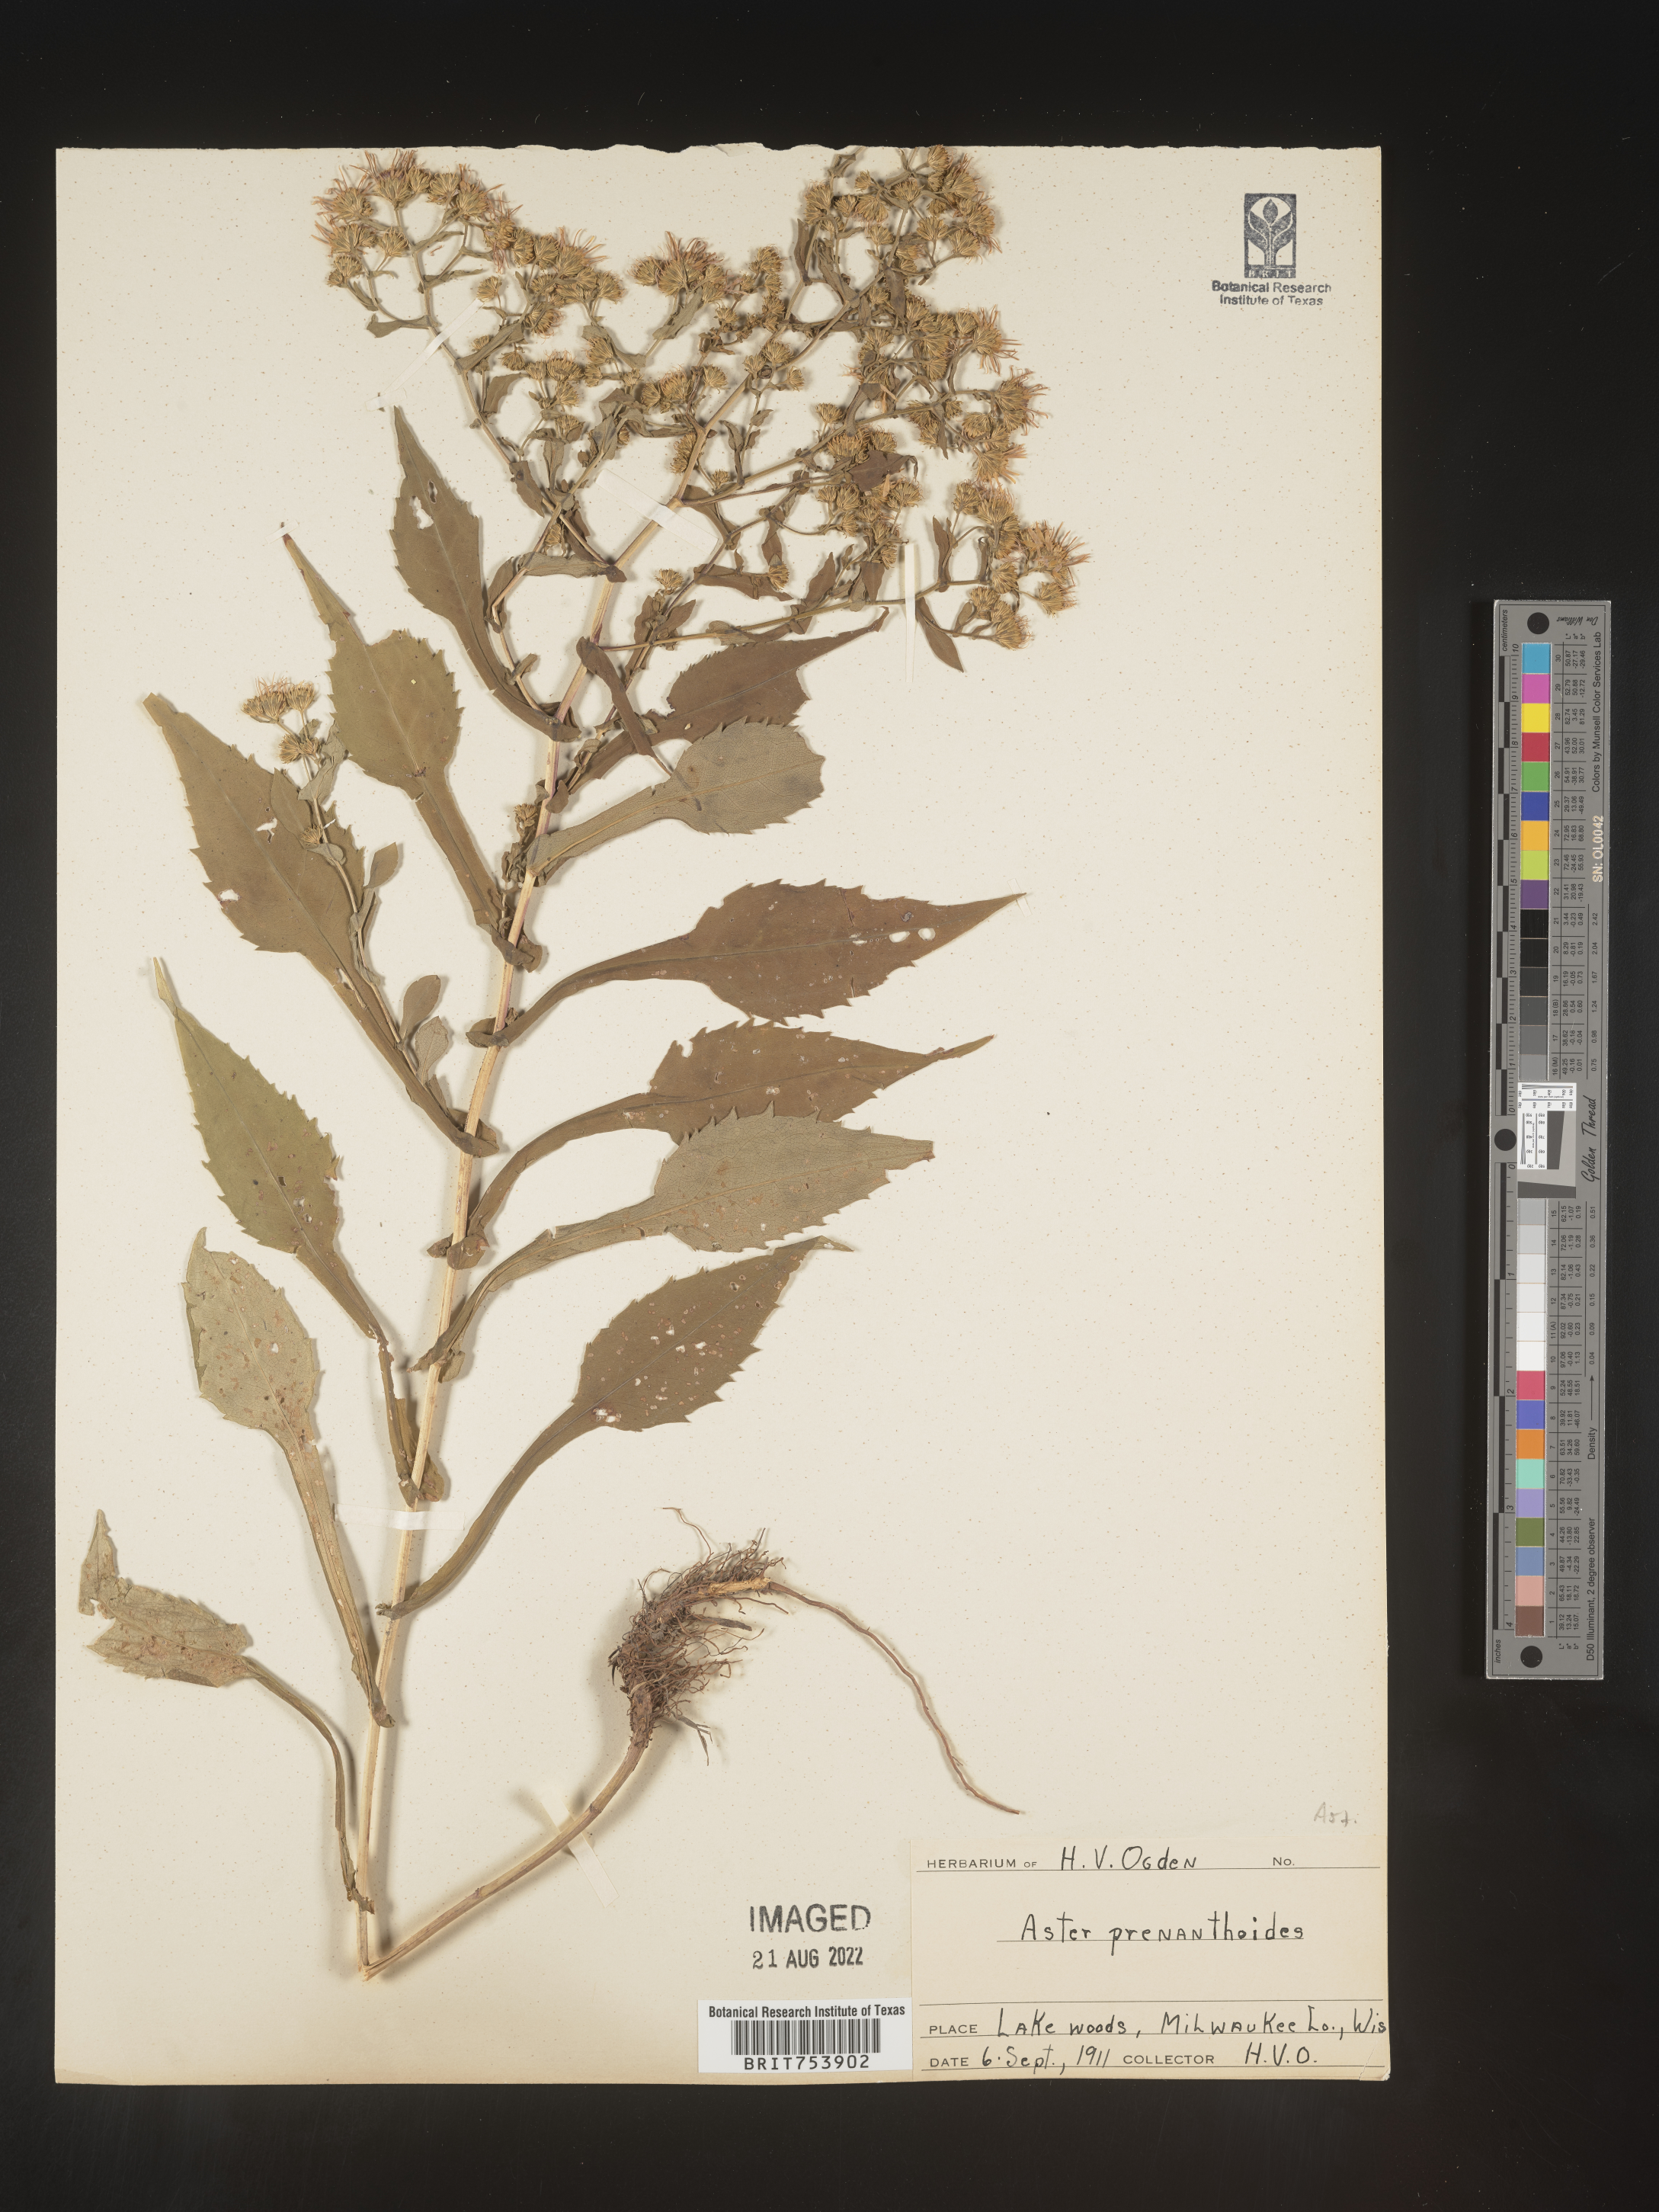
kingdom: Plantae
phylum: Tracheophyta
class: Magnoliopsida
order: Asterales
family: Asteraceae
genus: Symphyotrichum
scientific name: Symphyotrichum prenanthoides
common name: Crooked-stem aster
